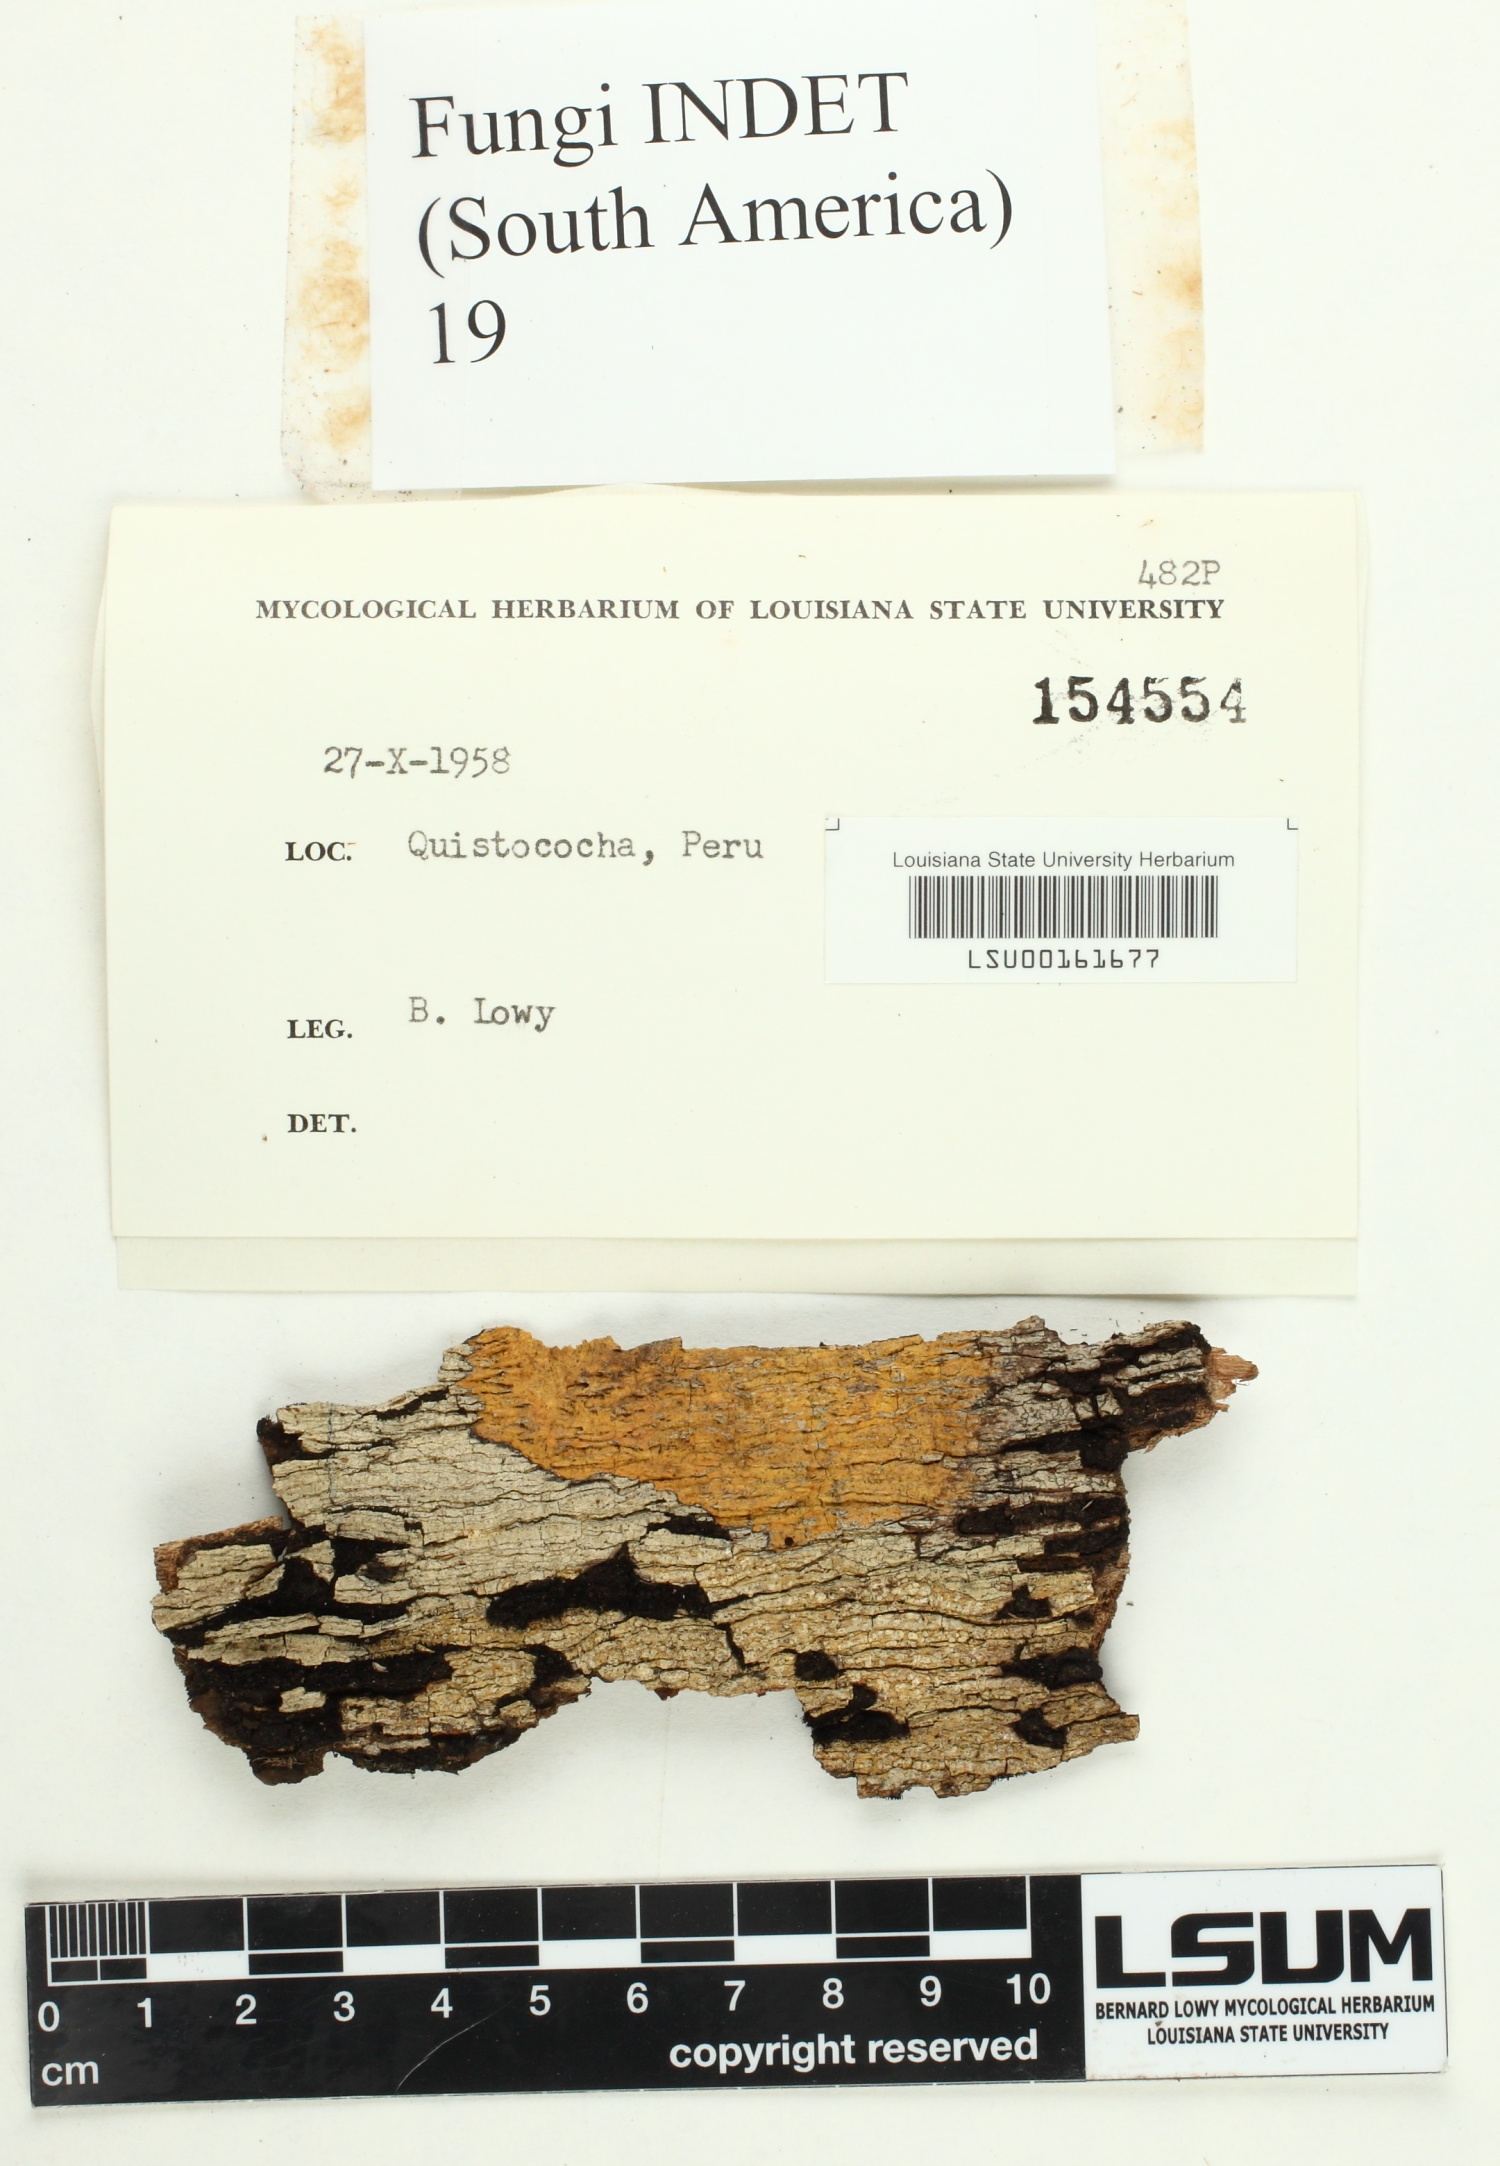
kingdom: Fungi
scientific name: Fungi
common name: Fungi
